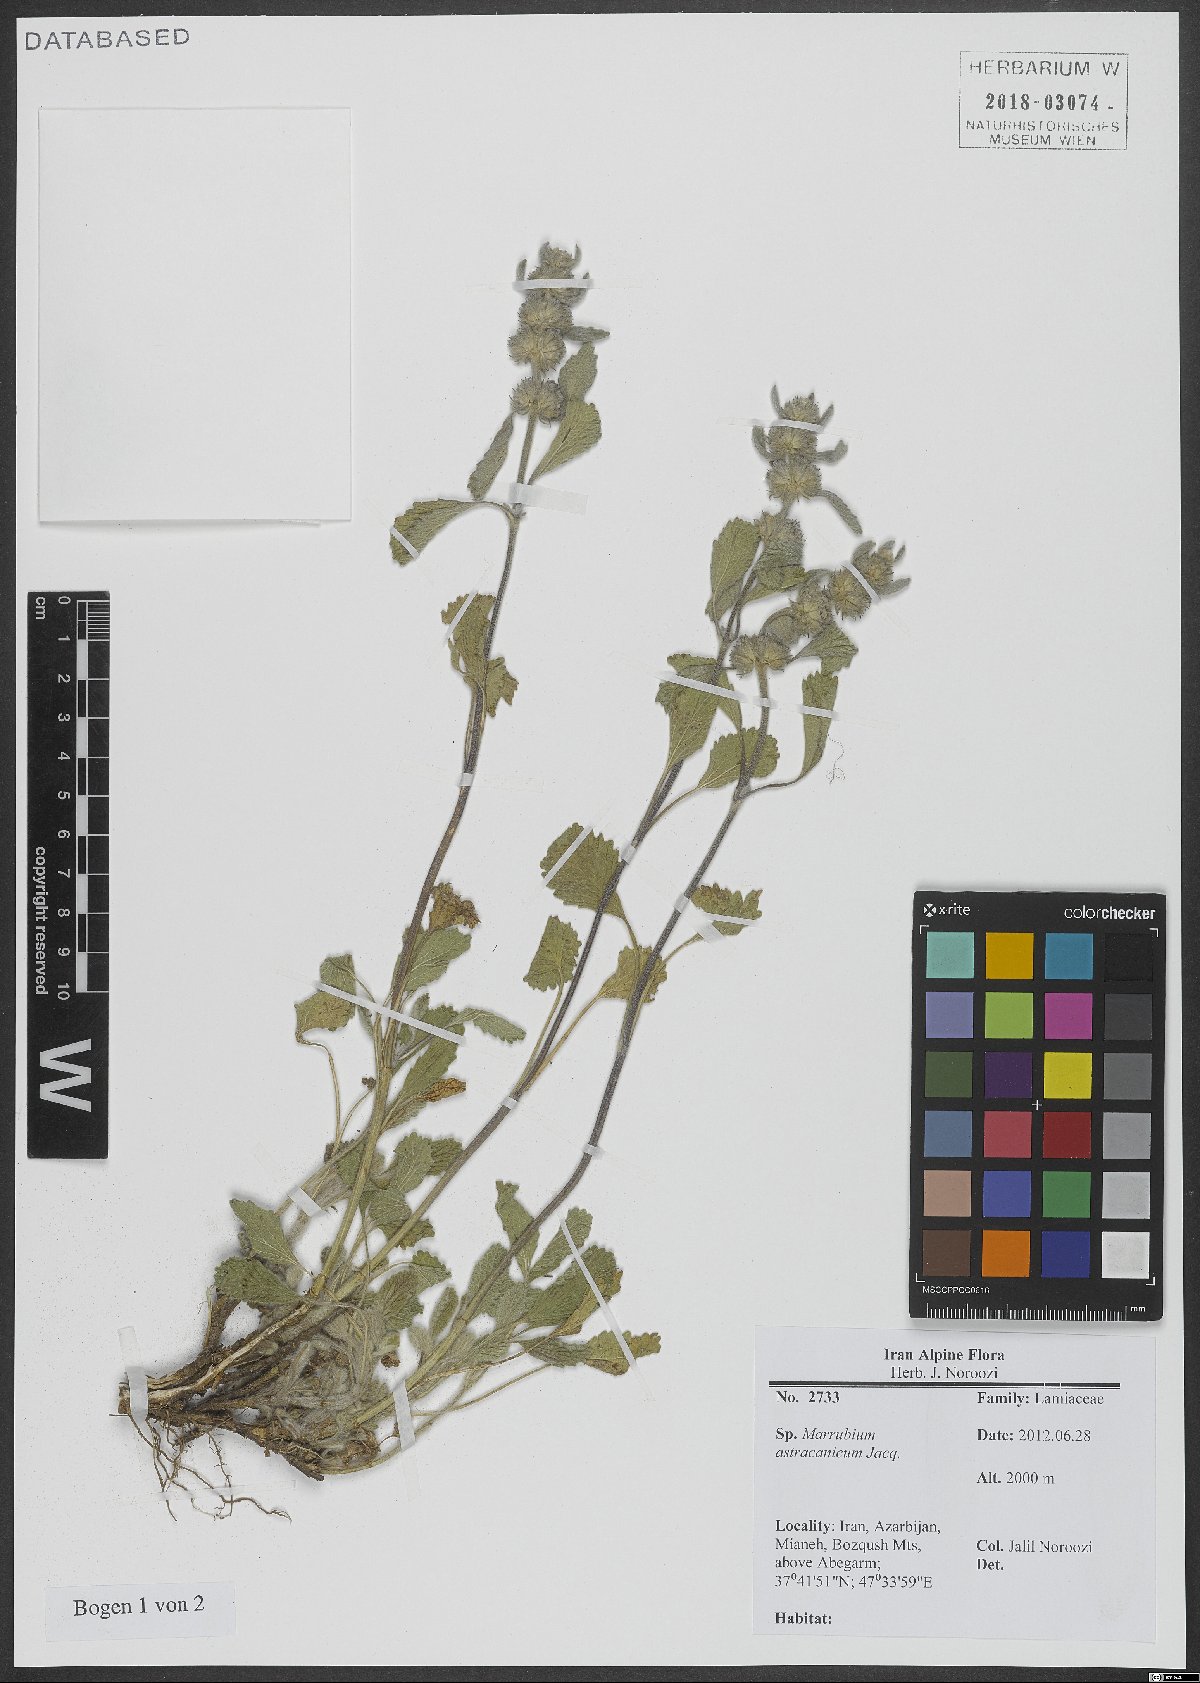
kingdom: Plantae
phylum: Tracheophyta
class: Magnoliopsida
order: Lamiales
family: Lamiaceae
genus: Marrubium
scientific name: Marrubium astracanicum
